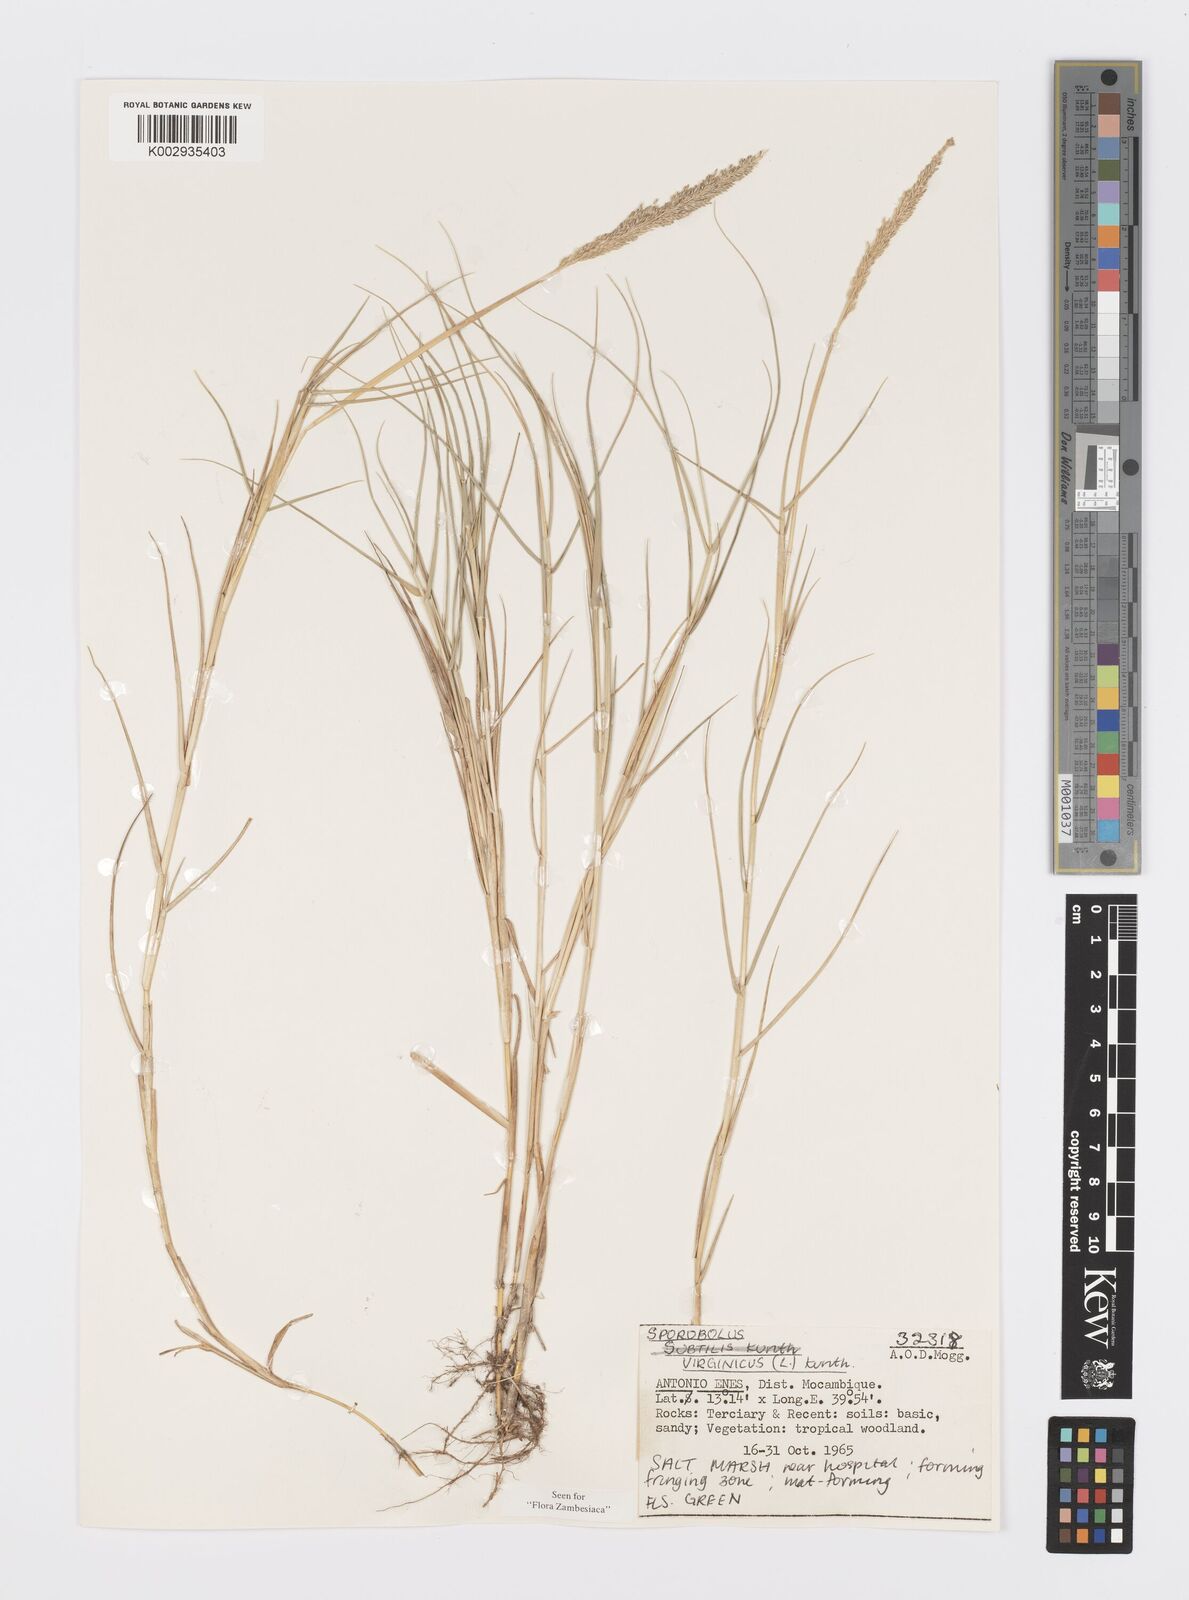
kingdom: Plantae
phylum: Tracheophyta
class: Liliopsida
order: Poales
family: Poaceae
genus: Sporobolus
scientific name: Sporobolus virginicus
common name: Beach dropseed
